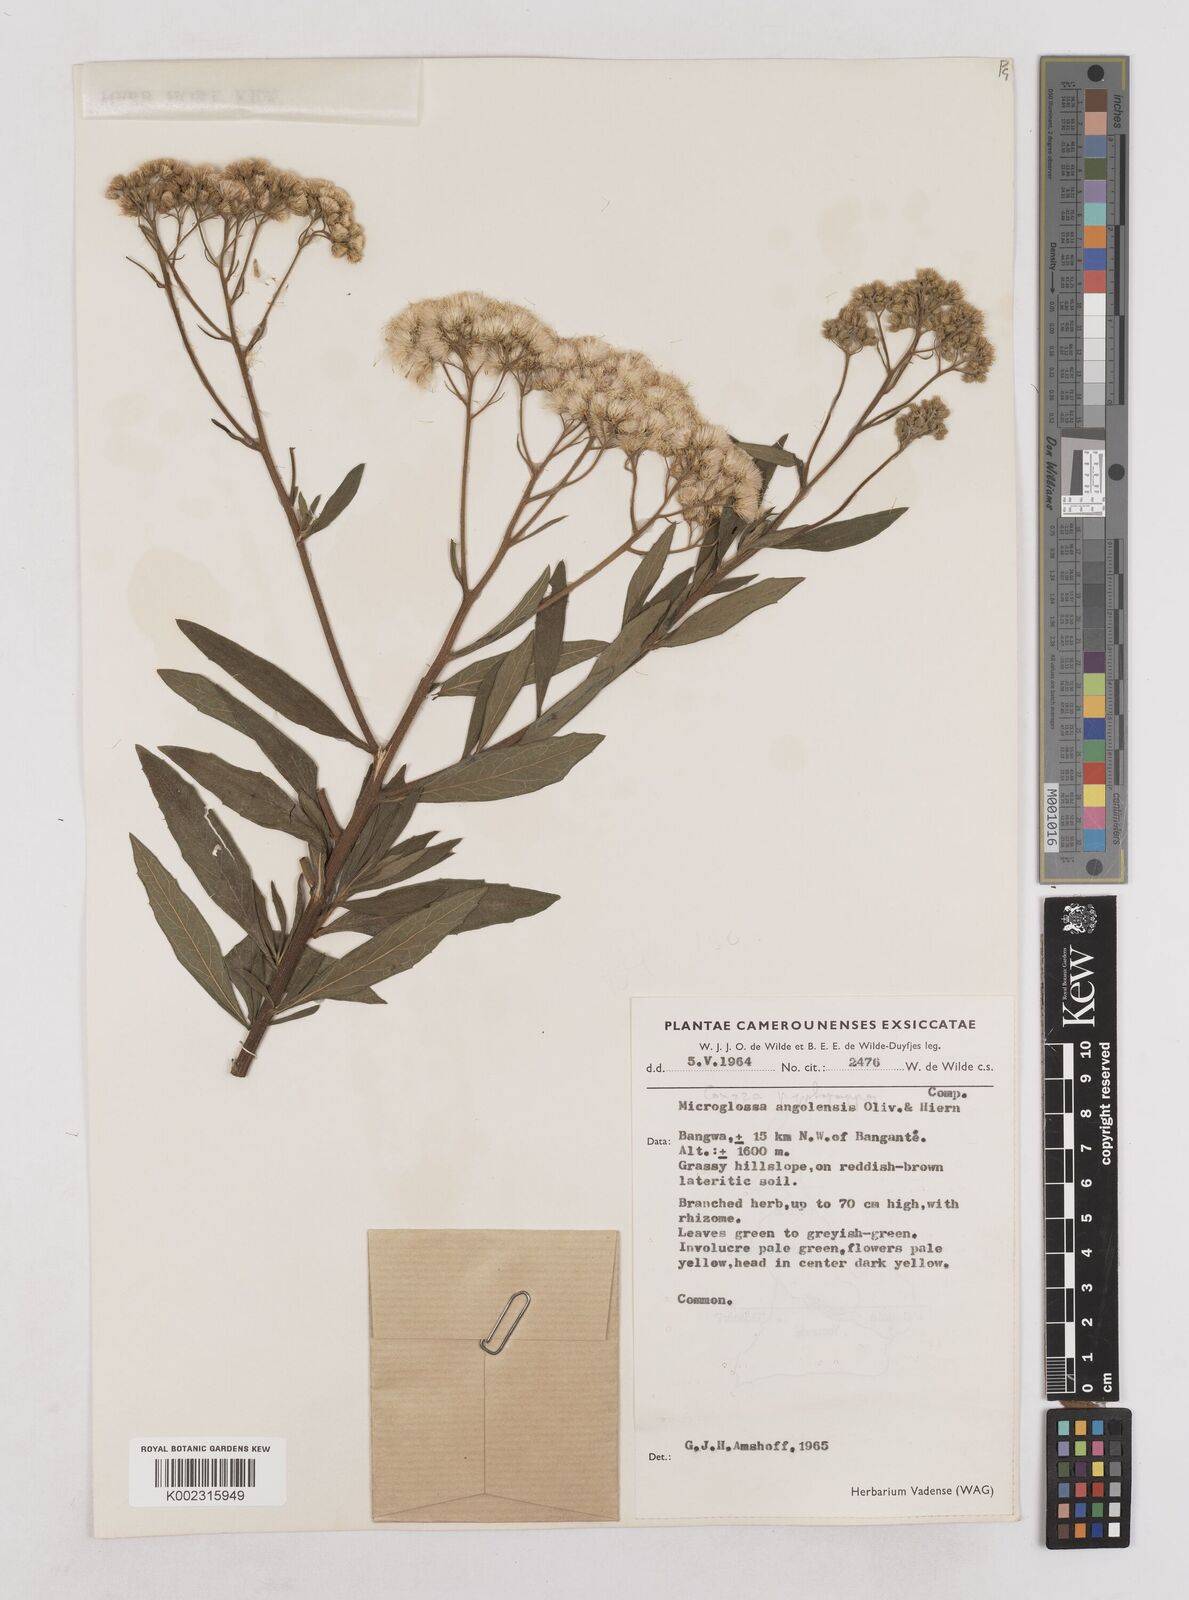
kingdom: Plantae
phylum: Tracheophyta
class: Magnoliopsida
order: Asterales
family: Asteraceae
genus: Microglossa
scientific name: Microglossa pyrrhopappa
